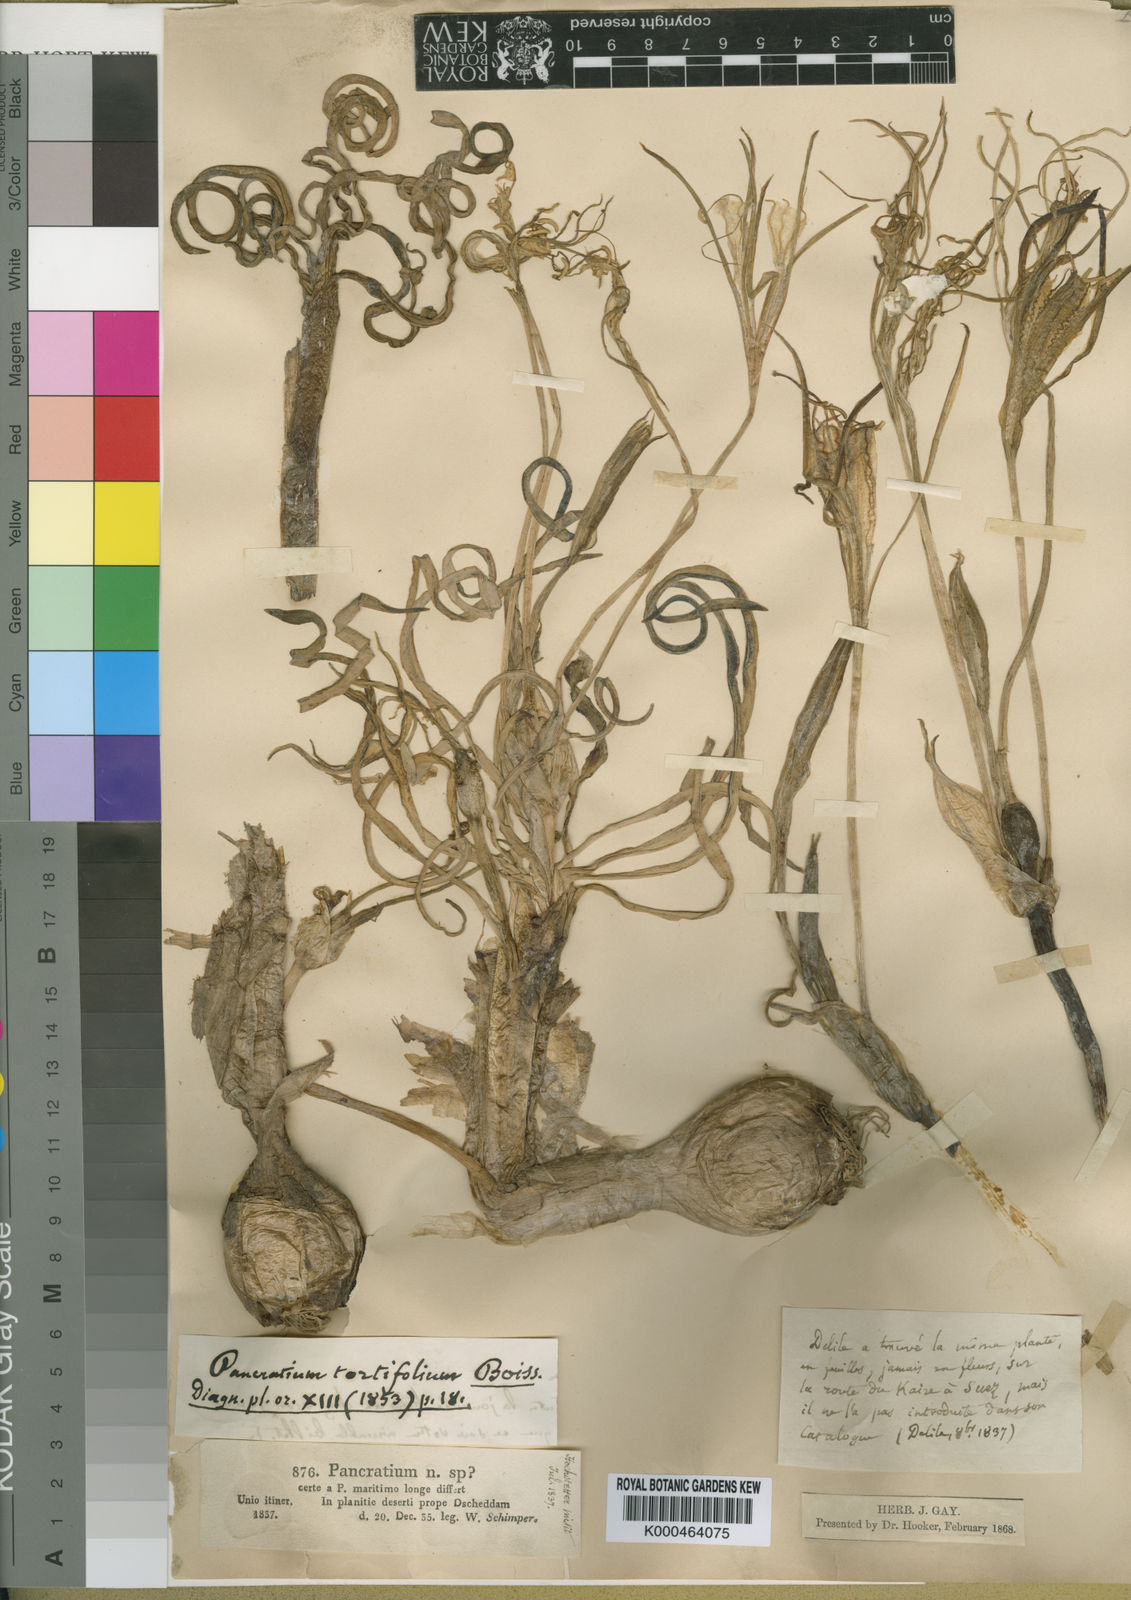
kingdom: Plantae
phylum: Tracheophyta
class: Liliopsida
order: Asparagales
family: Amaryllidaceae
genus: Pancratium
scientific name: Pancratium tortuosum
